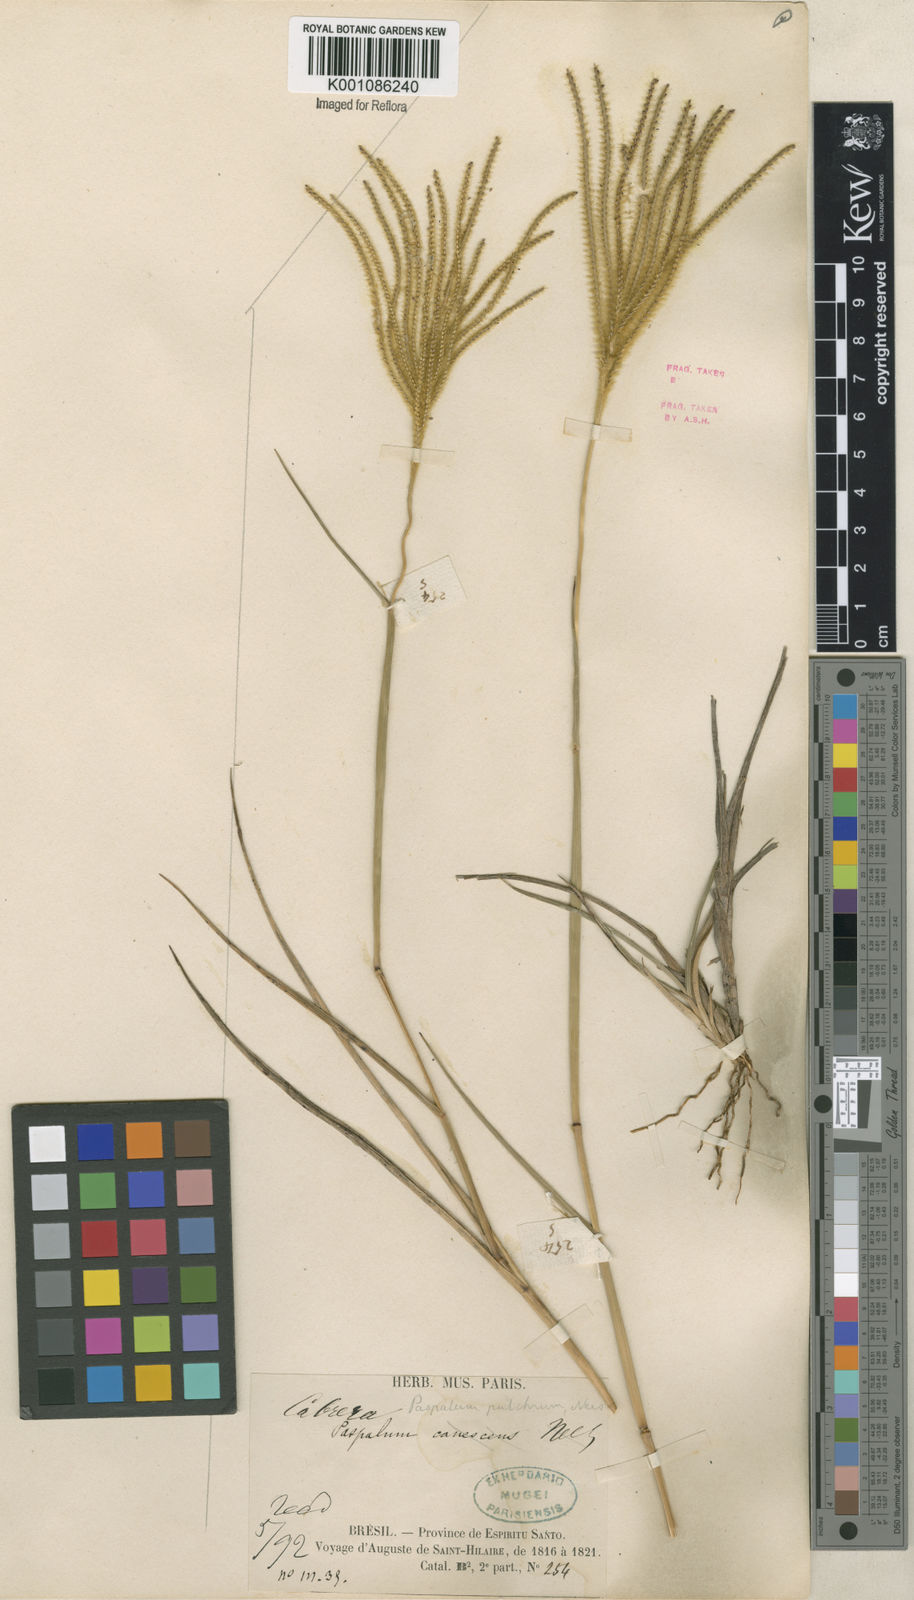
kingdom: Plantae
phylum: Tracheophyta
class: Liliopsida
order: Poales
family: Poaceae
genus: Axonopus
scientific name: Axonopus aureus
